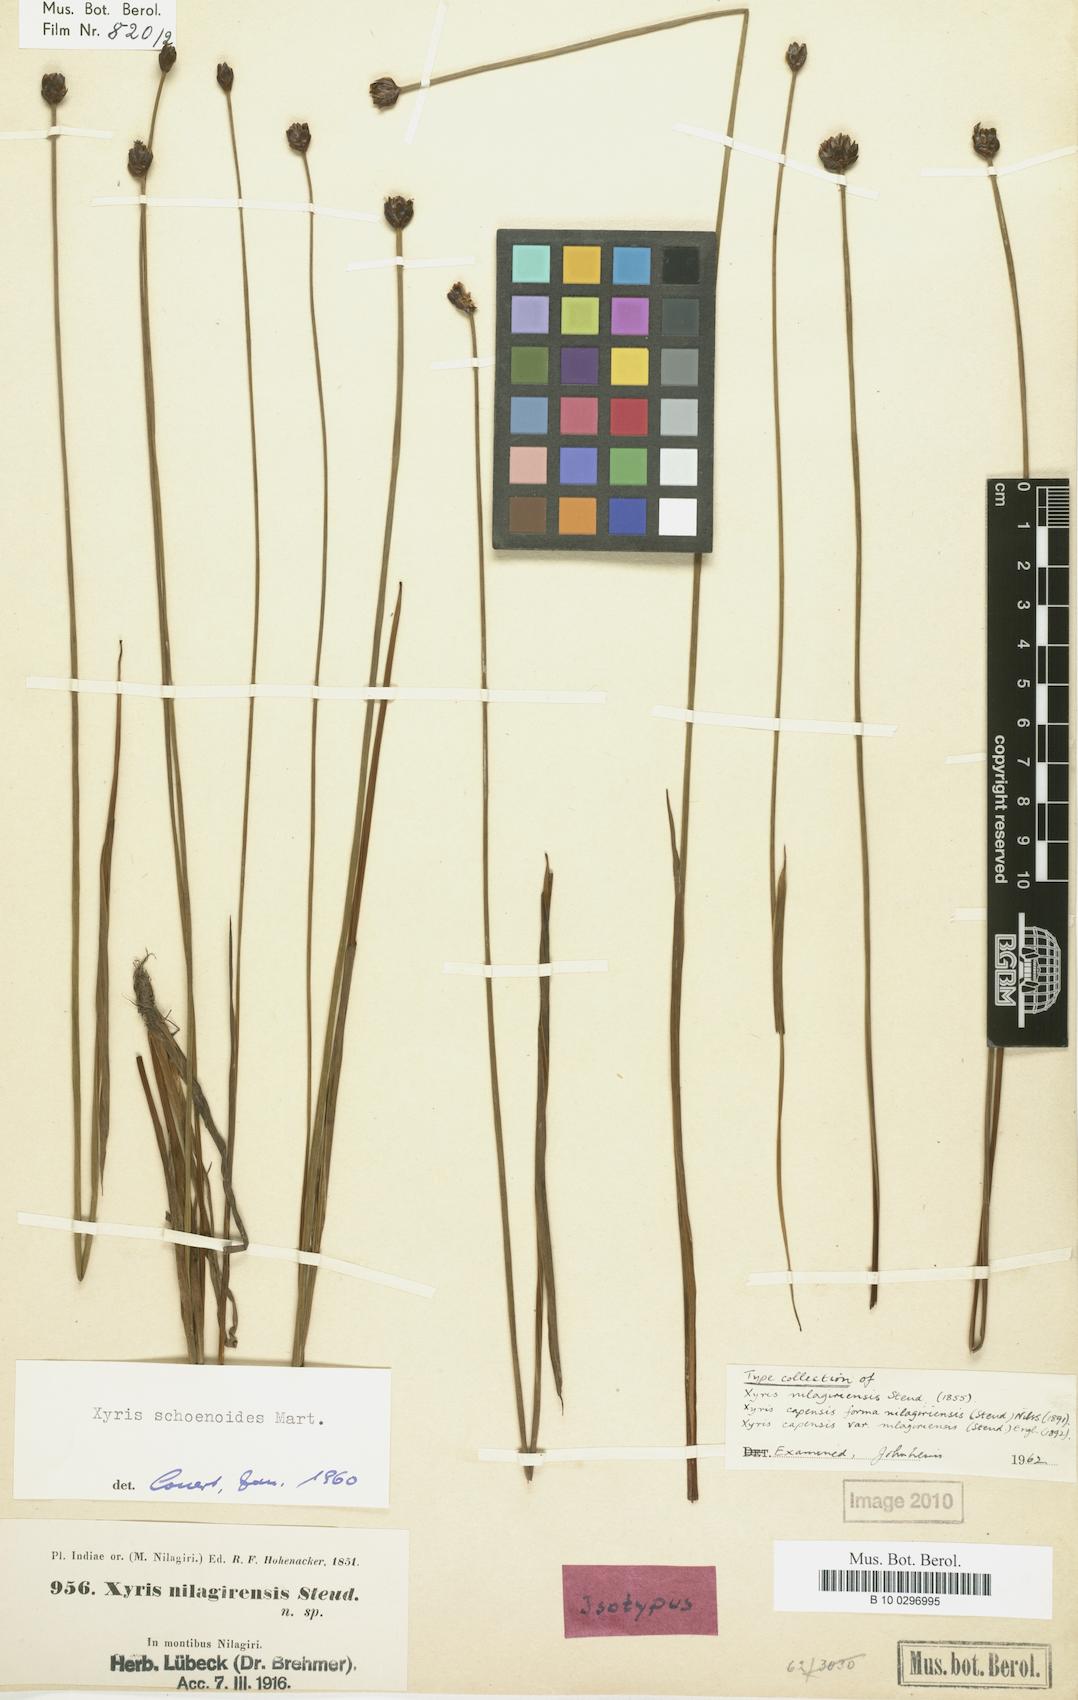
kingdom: Plantae
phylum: Tracheophyta
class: Liliopsida
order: Poales
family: Xyridaceae
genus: Xyris
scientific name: Xyris capensis
